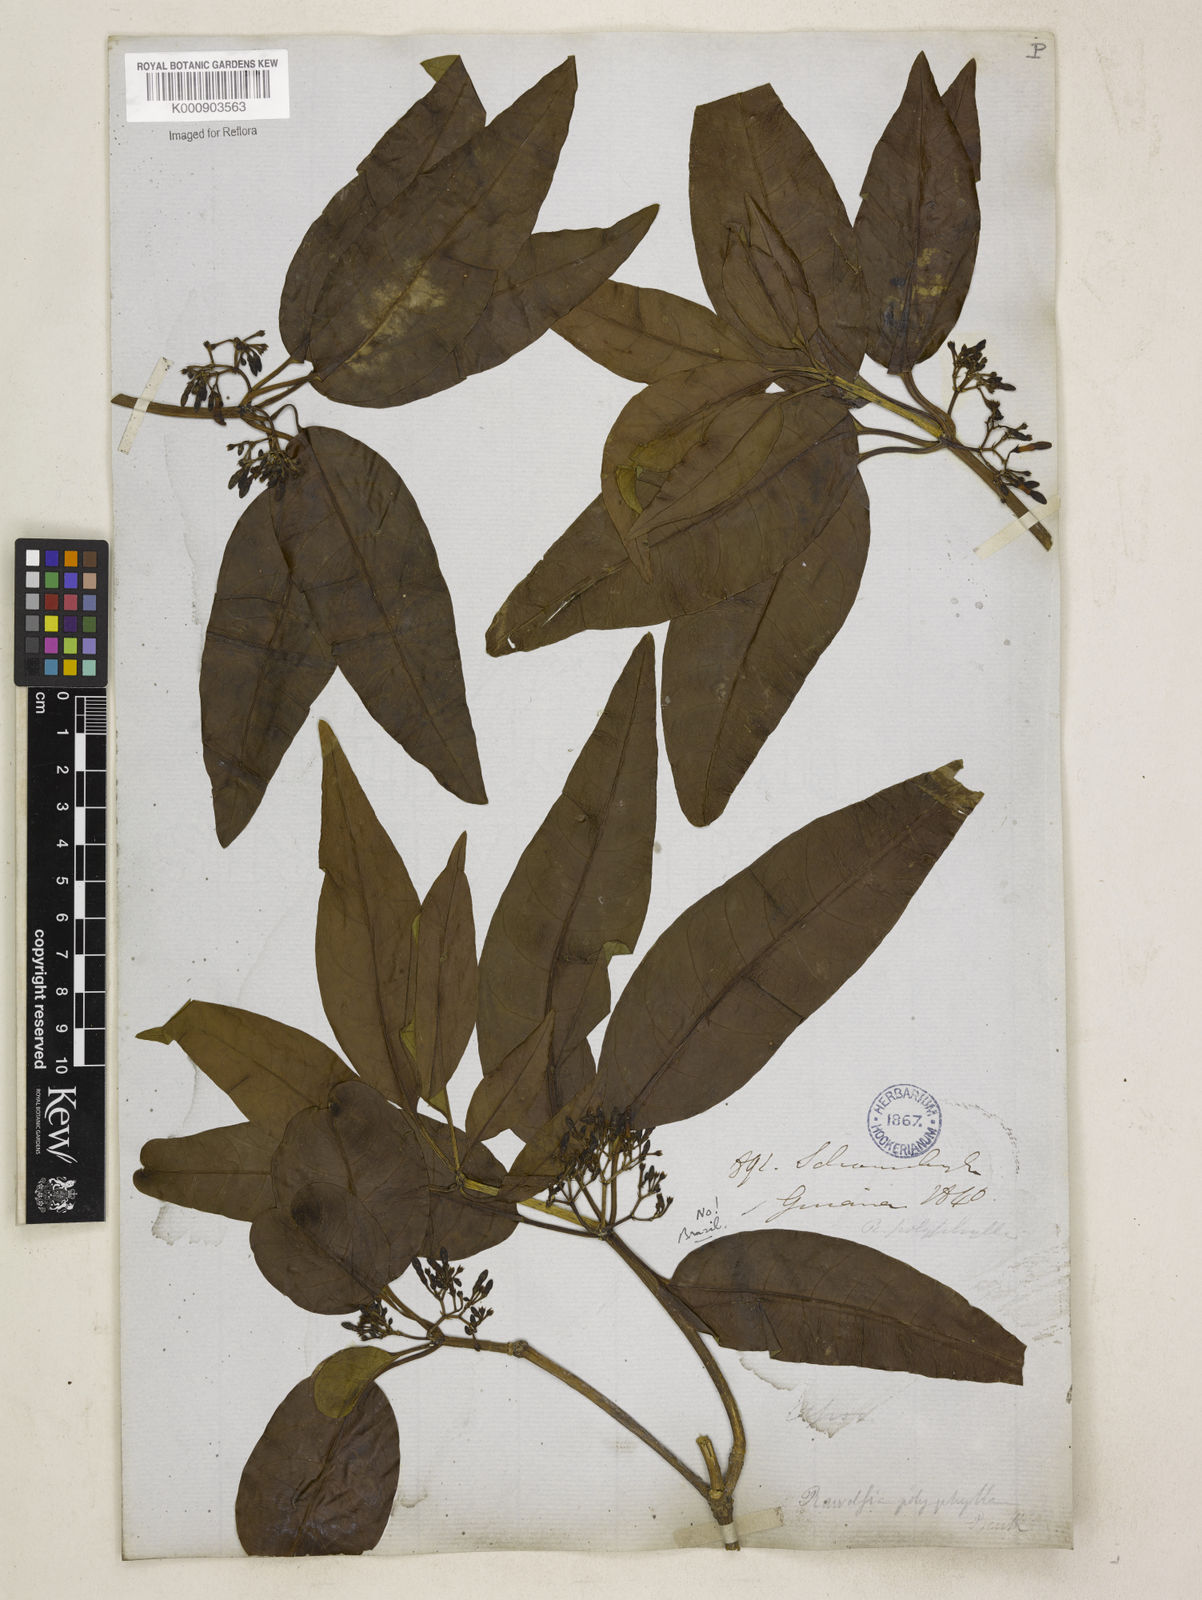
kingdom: Plantae
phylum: Tracheophyta
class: Magnoliopsida
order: Gentianales
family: Apocynaceae
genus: Rauvolfia
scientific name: Rauvolfia polyphylla
